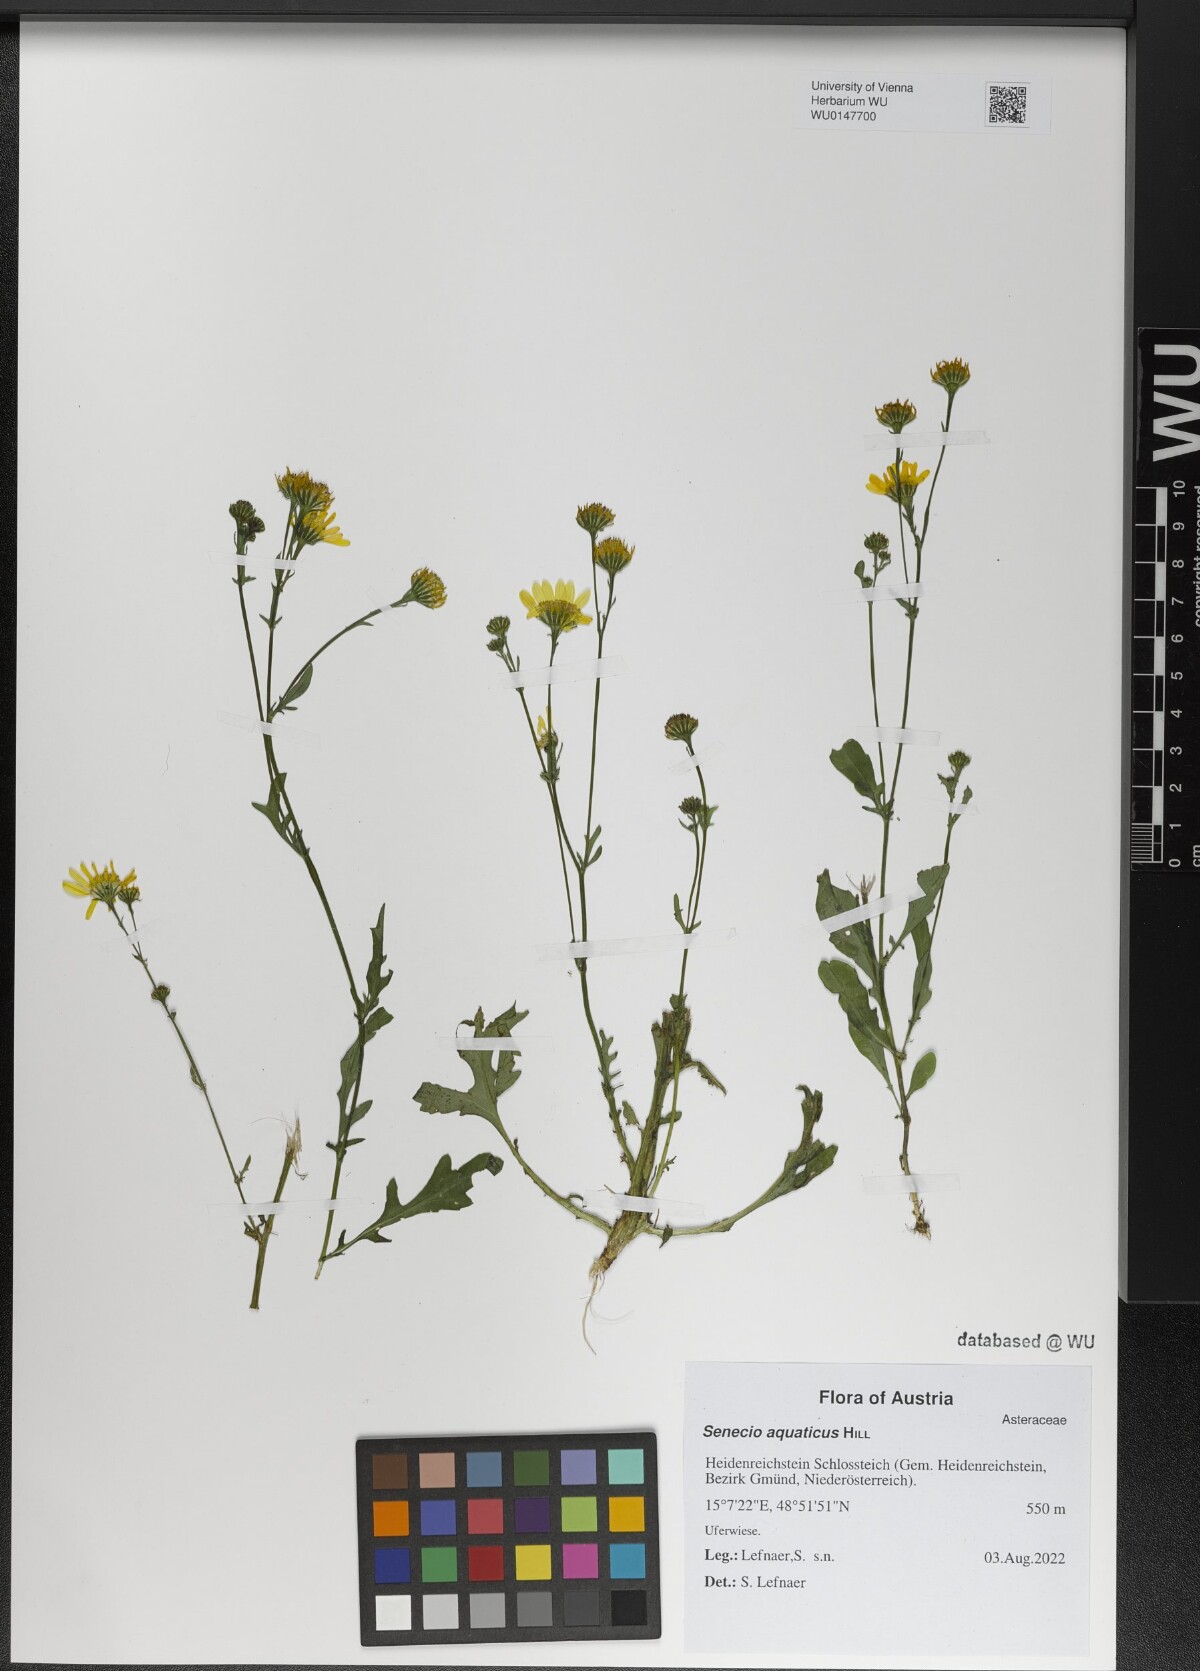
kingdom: Plantae
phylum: Tracheophyta
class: Magnoliopsida
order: Asterales
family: Asteraceae
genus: Jacobaea
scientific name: Jacobaea aquatica
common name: Water ragwort
